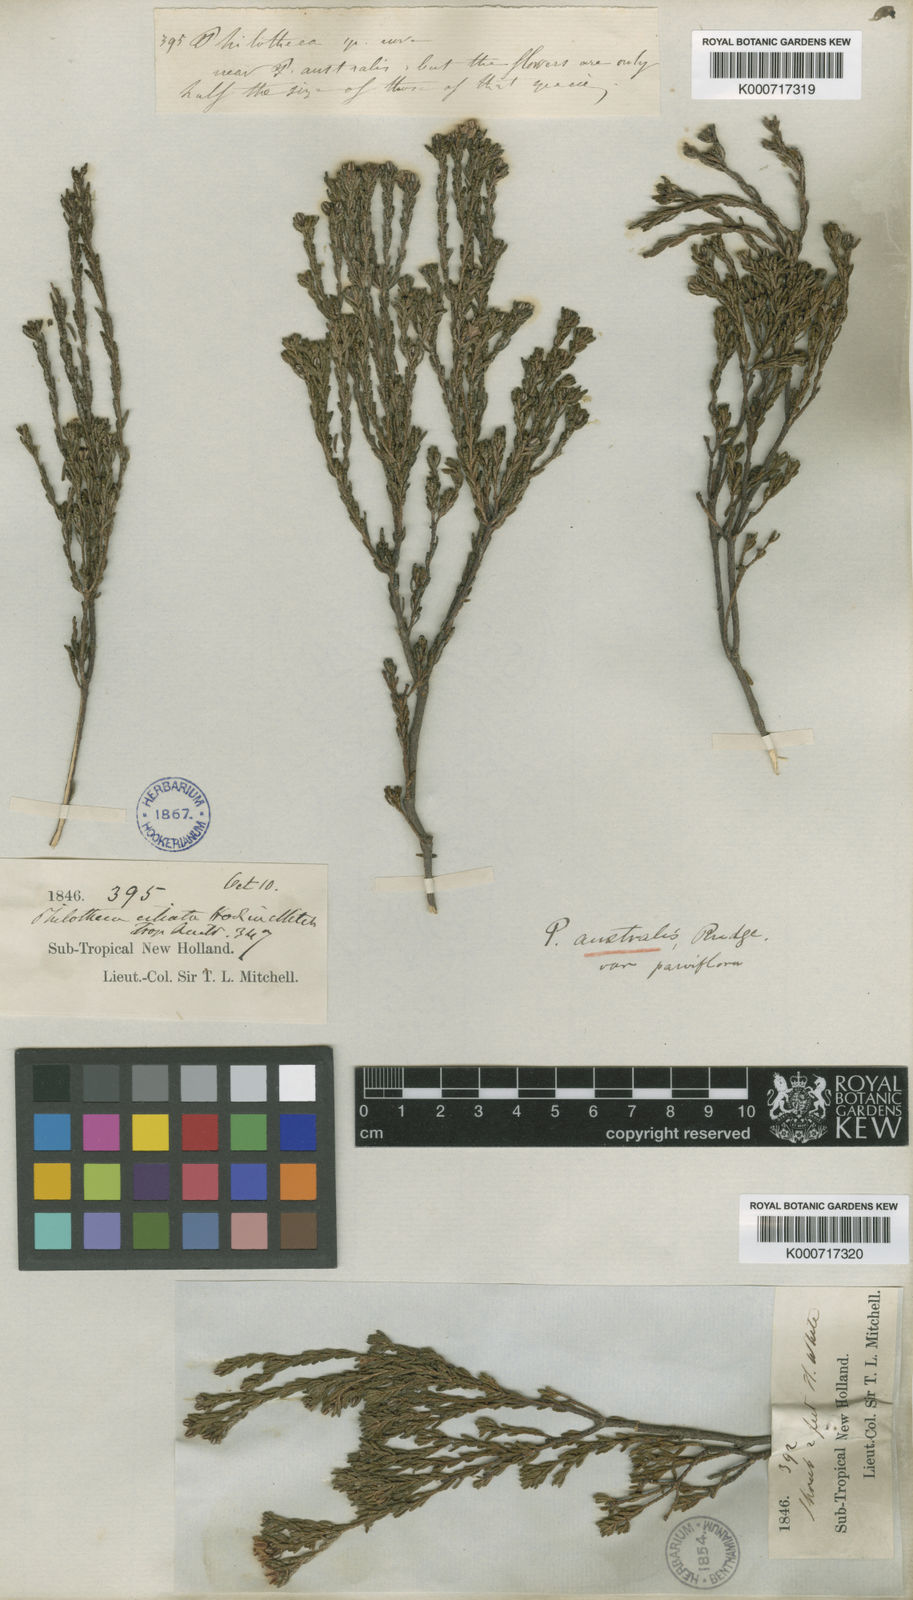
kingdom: Plantae
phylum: Tracheophyta
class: Magnoliopsida
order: Sapindales
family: Rutaceae
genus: Philotheca
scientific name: Philotheca
